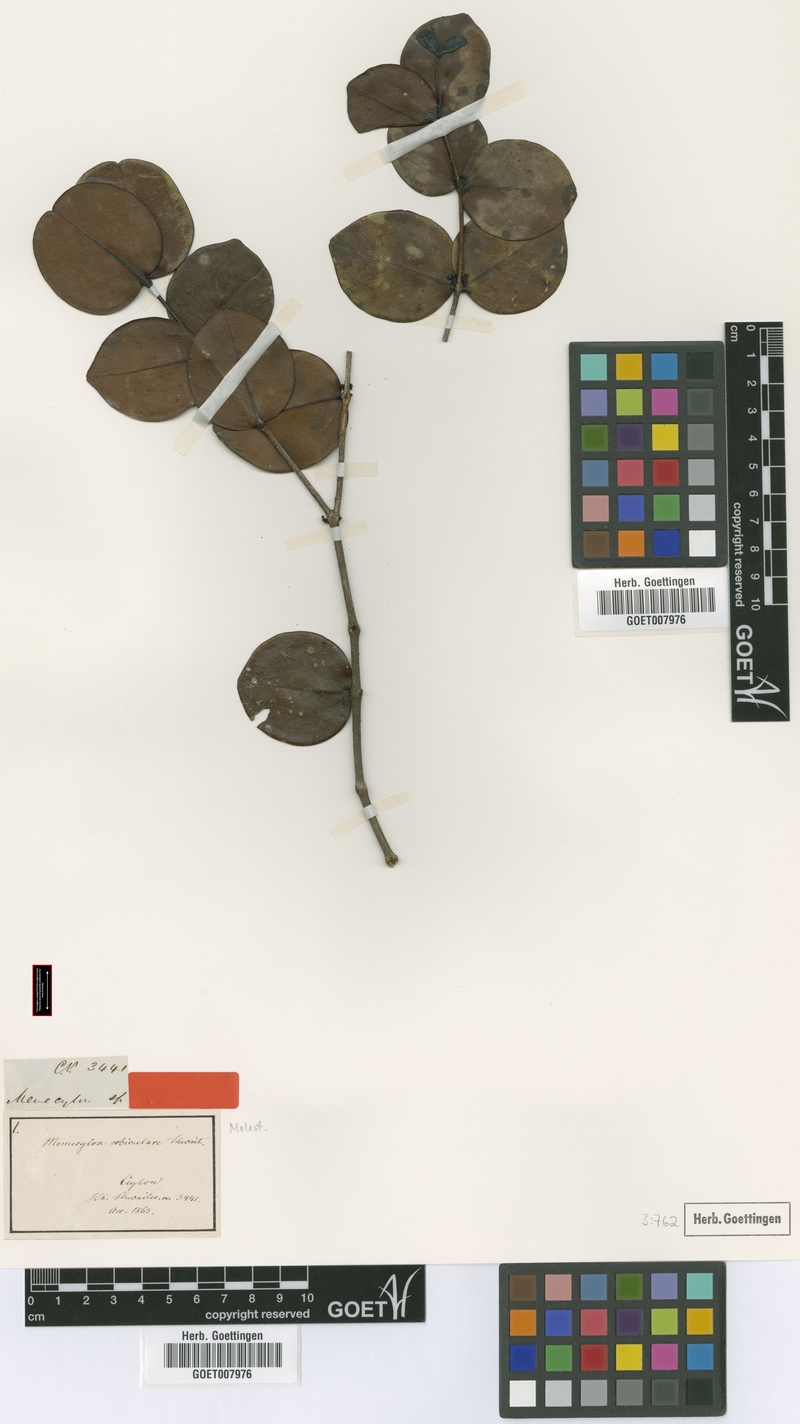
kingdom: Plantae
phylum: Tracheophyta
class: Magnoliopsida
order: Myrtales
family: Melastomataceae
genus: Memecylon
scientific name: Memecylon orbiculare
